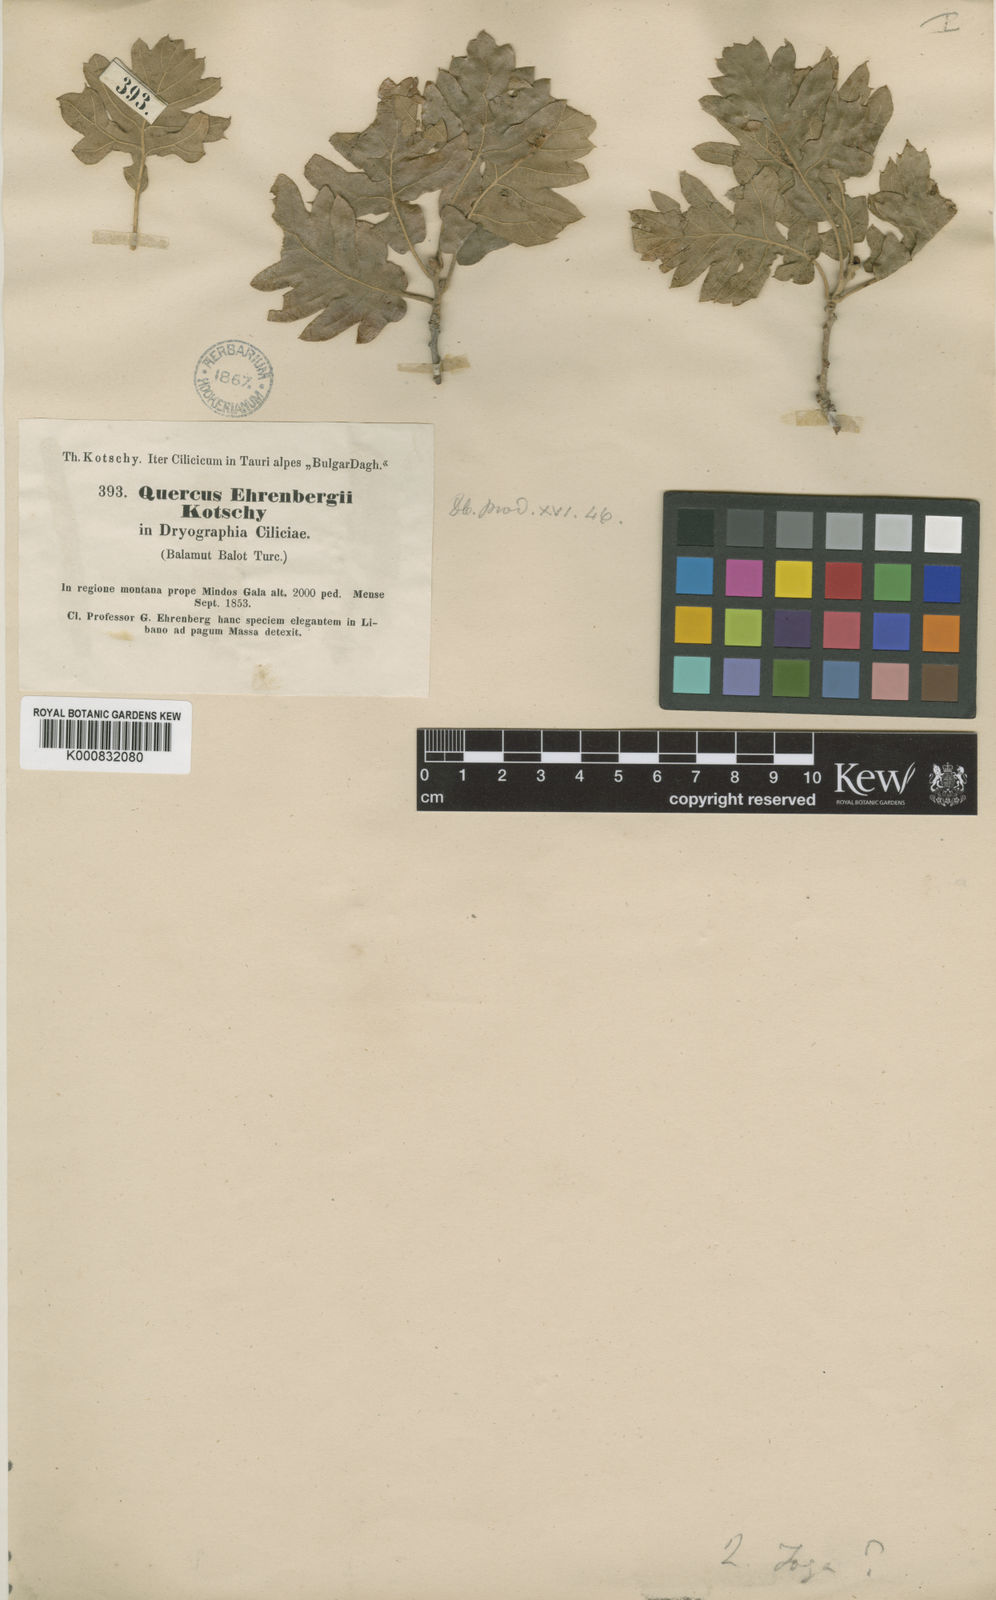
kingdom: Plantae
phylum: Tracheophyta
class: Magnoliopsida
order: Fagales
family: Fagaceae
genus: Quercus
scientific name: Quercus ithaburensis
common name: Tabor oak
